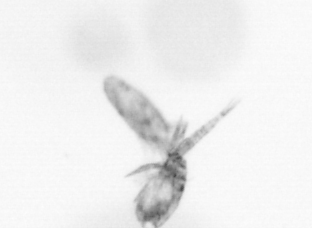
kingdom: Animalia
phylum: Arthropoda
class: Copepoda
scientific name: Copepoda
